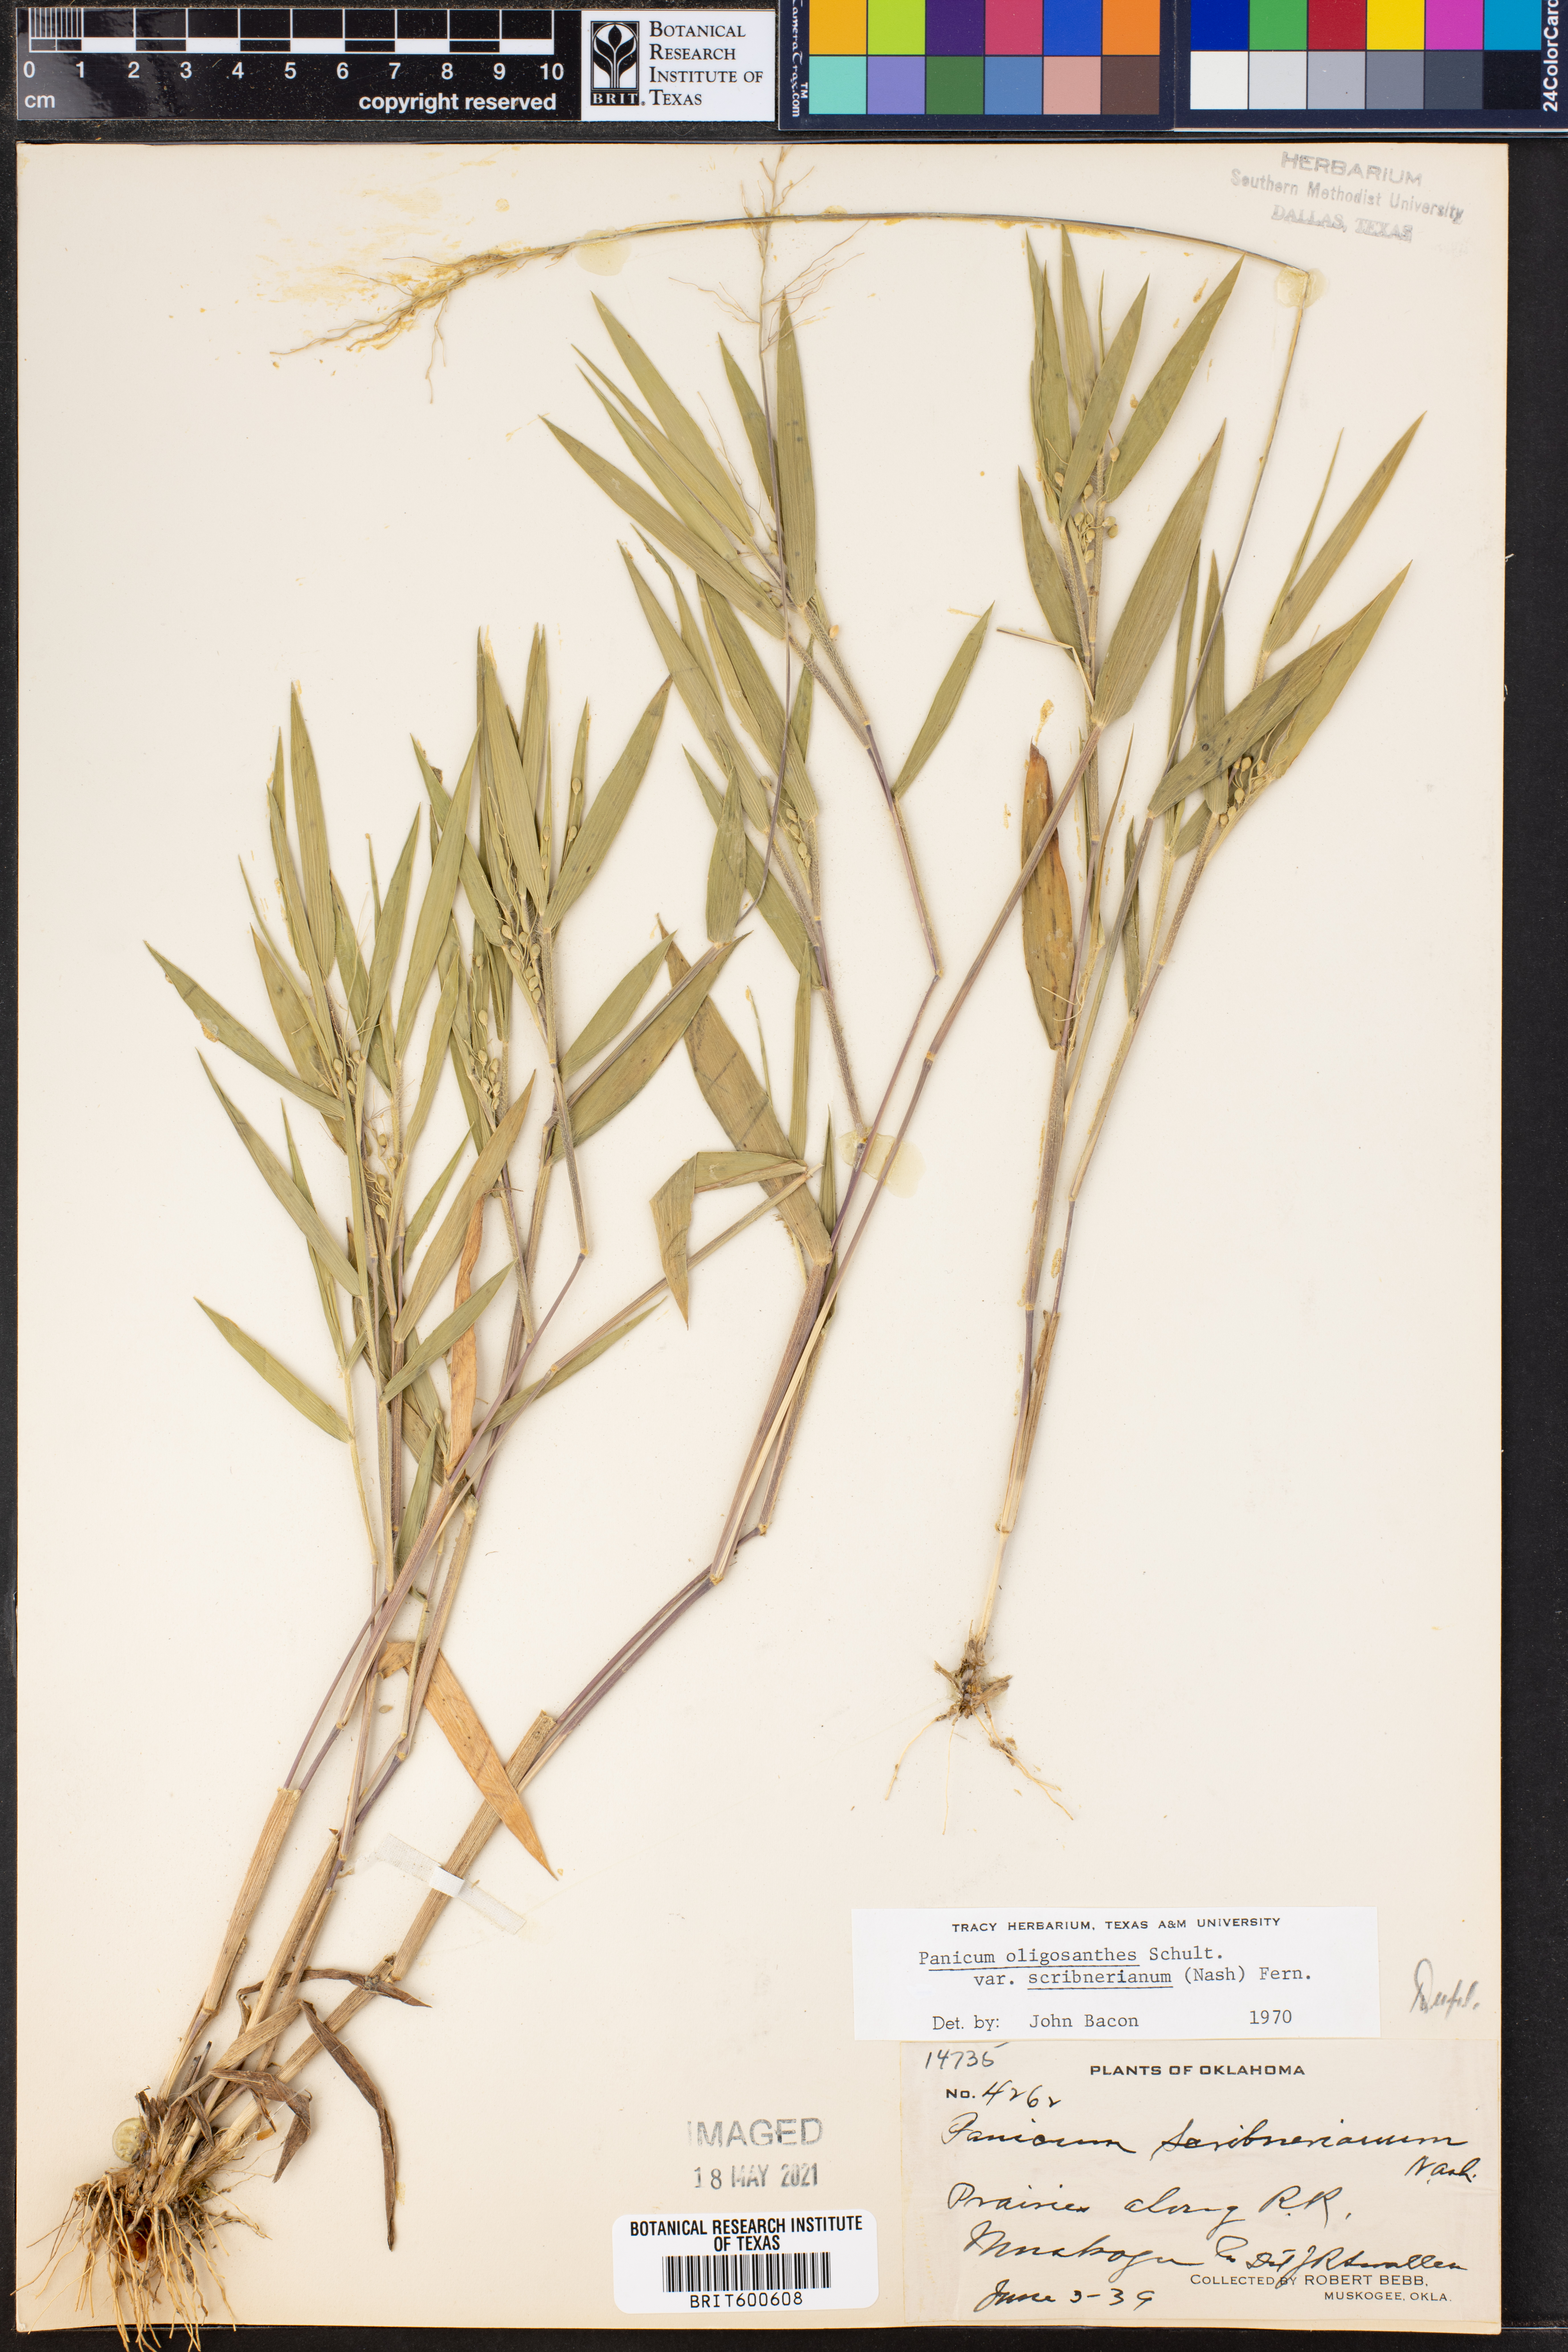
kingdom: Plantae
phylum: Tracheophyta
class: Liliopsida
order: Poales
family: Poaceae
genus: Dichanthelium
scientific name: Dichanthelium scribnerianum
